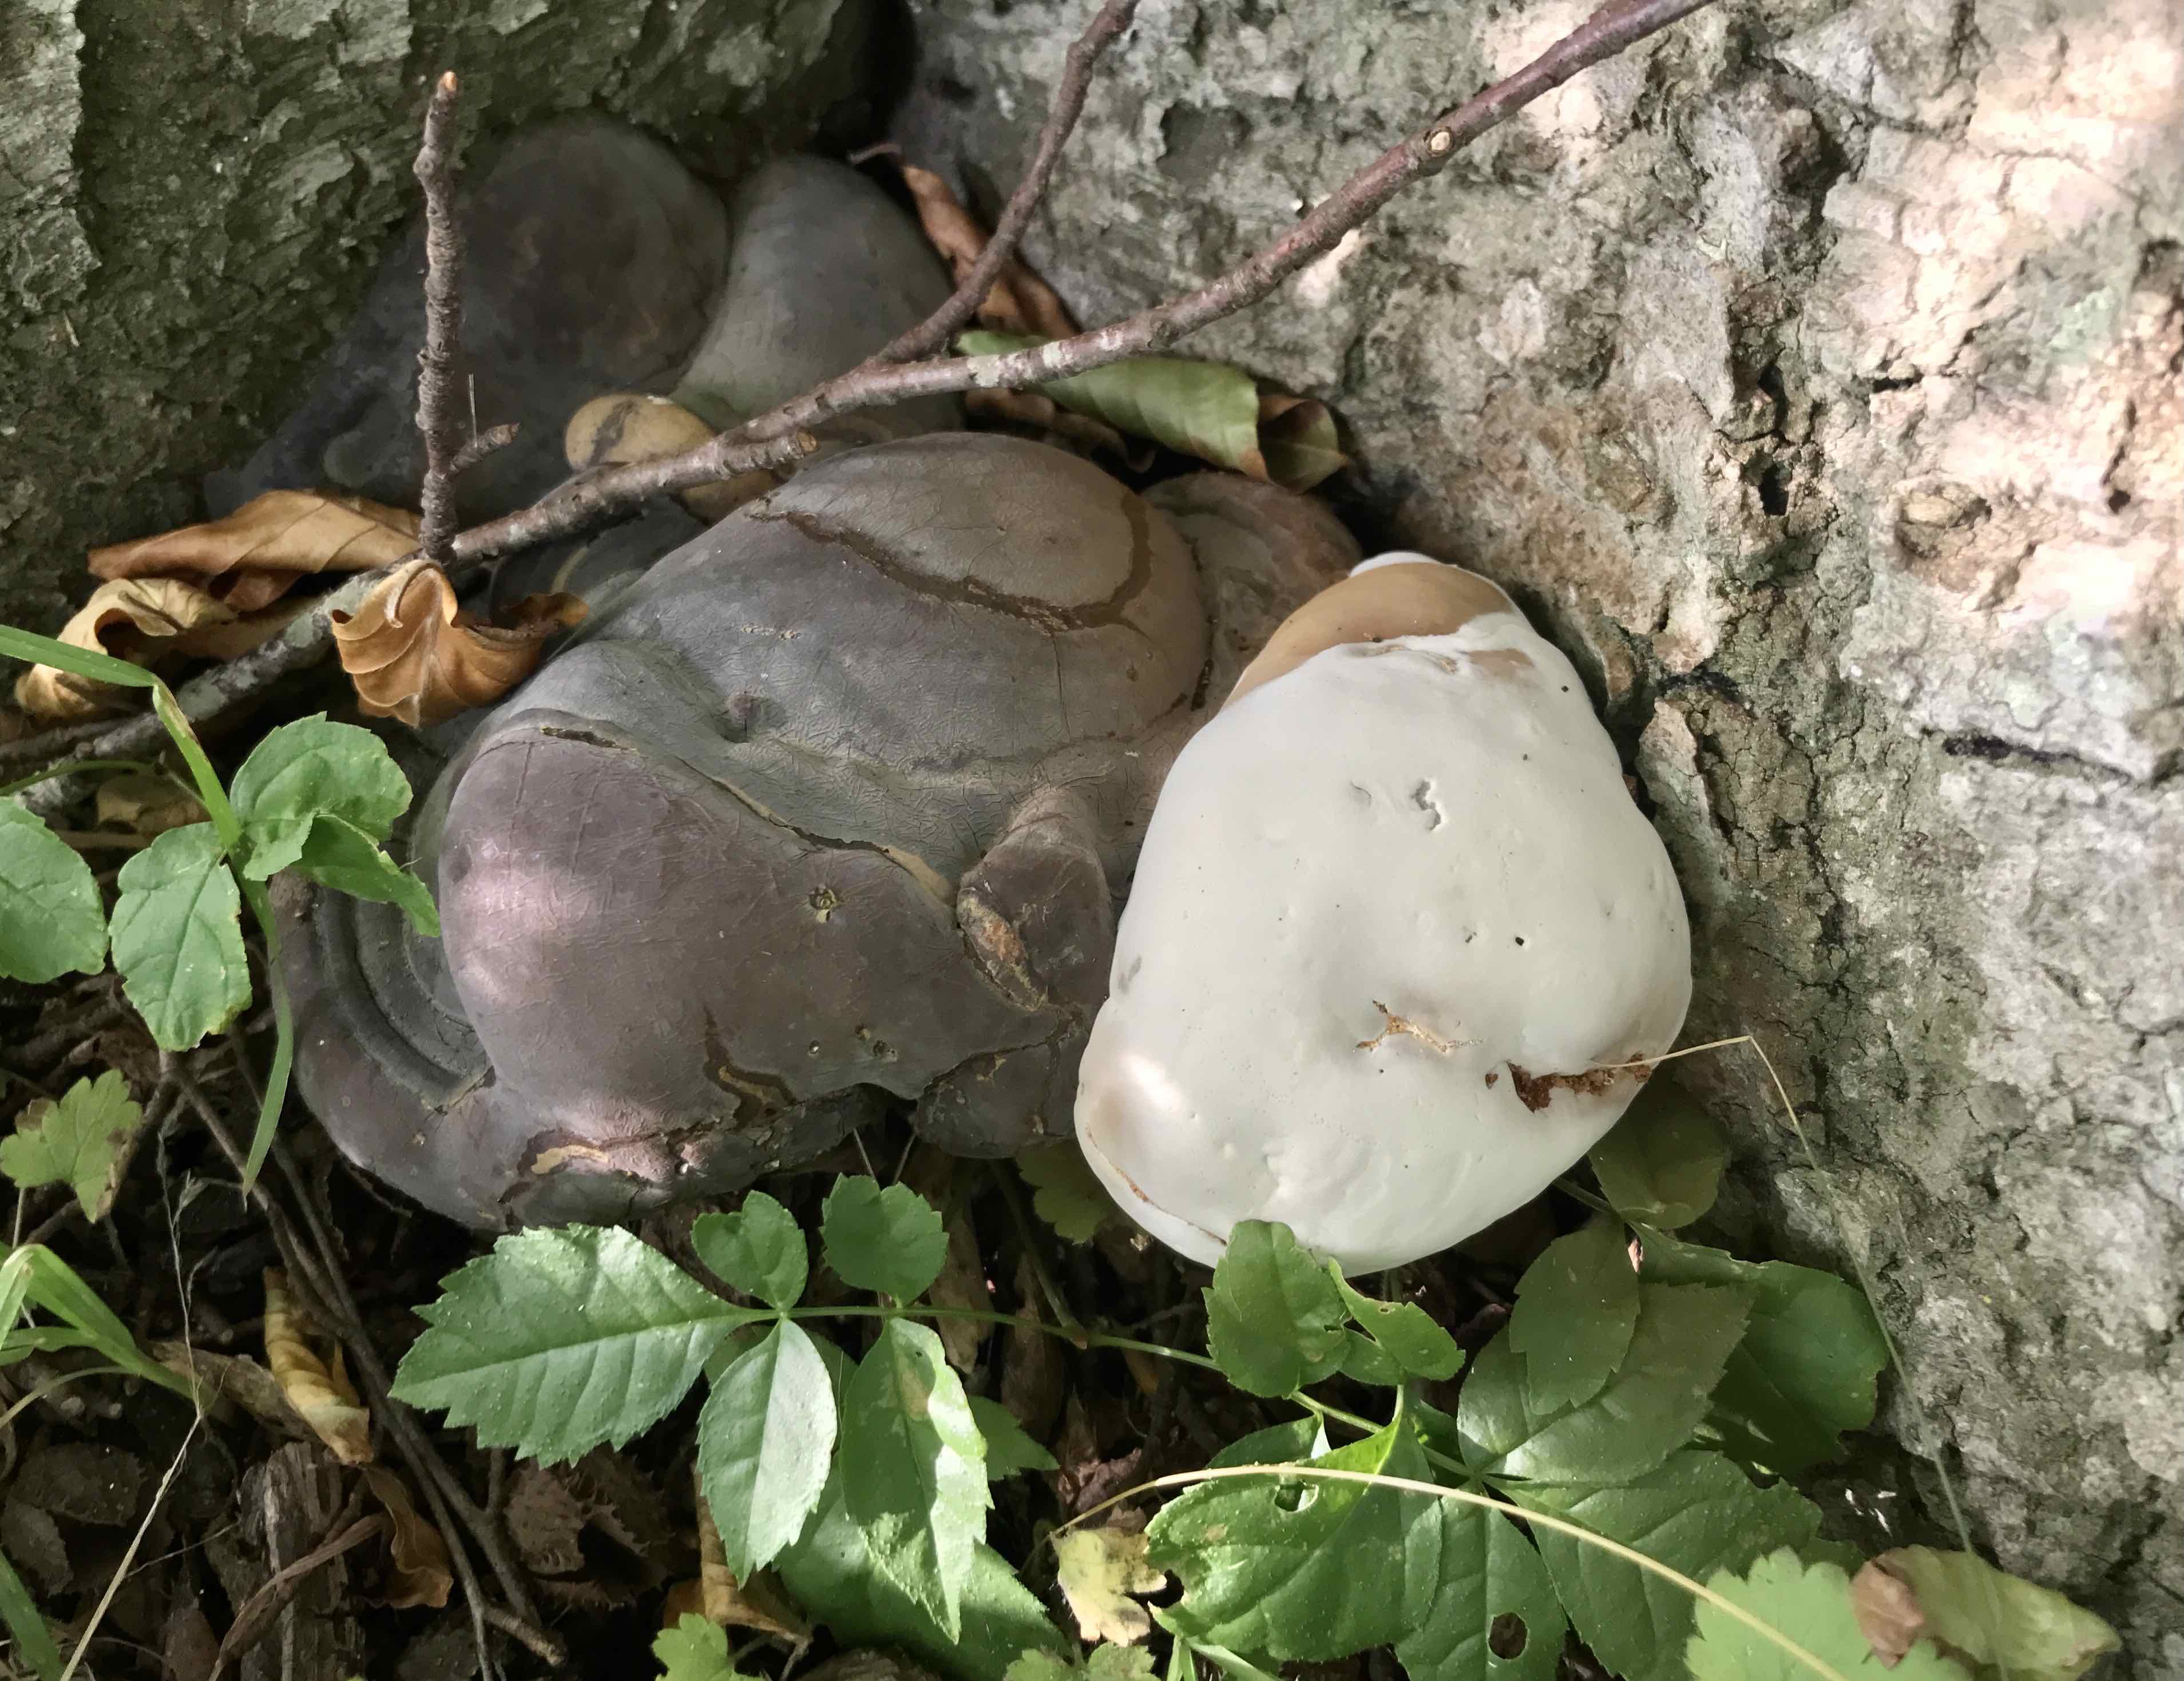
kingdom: Fungi
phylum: Basidiomycota
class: Agaricomycetes
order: Polyporales
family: Polyporaceae
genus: Ganoderma
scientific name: Ganoderma pfeifferi
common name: kobberrød lakporesvamp
